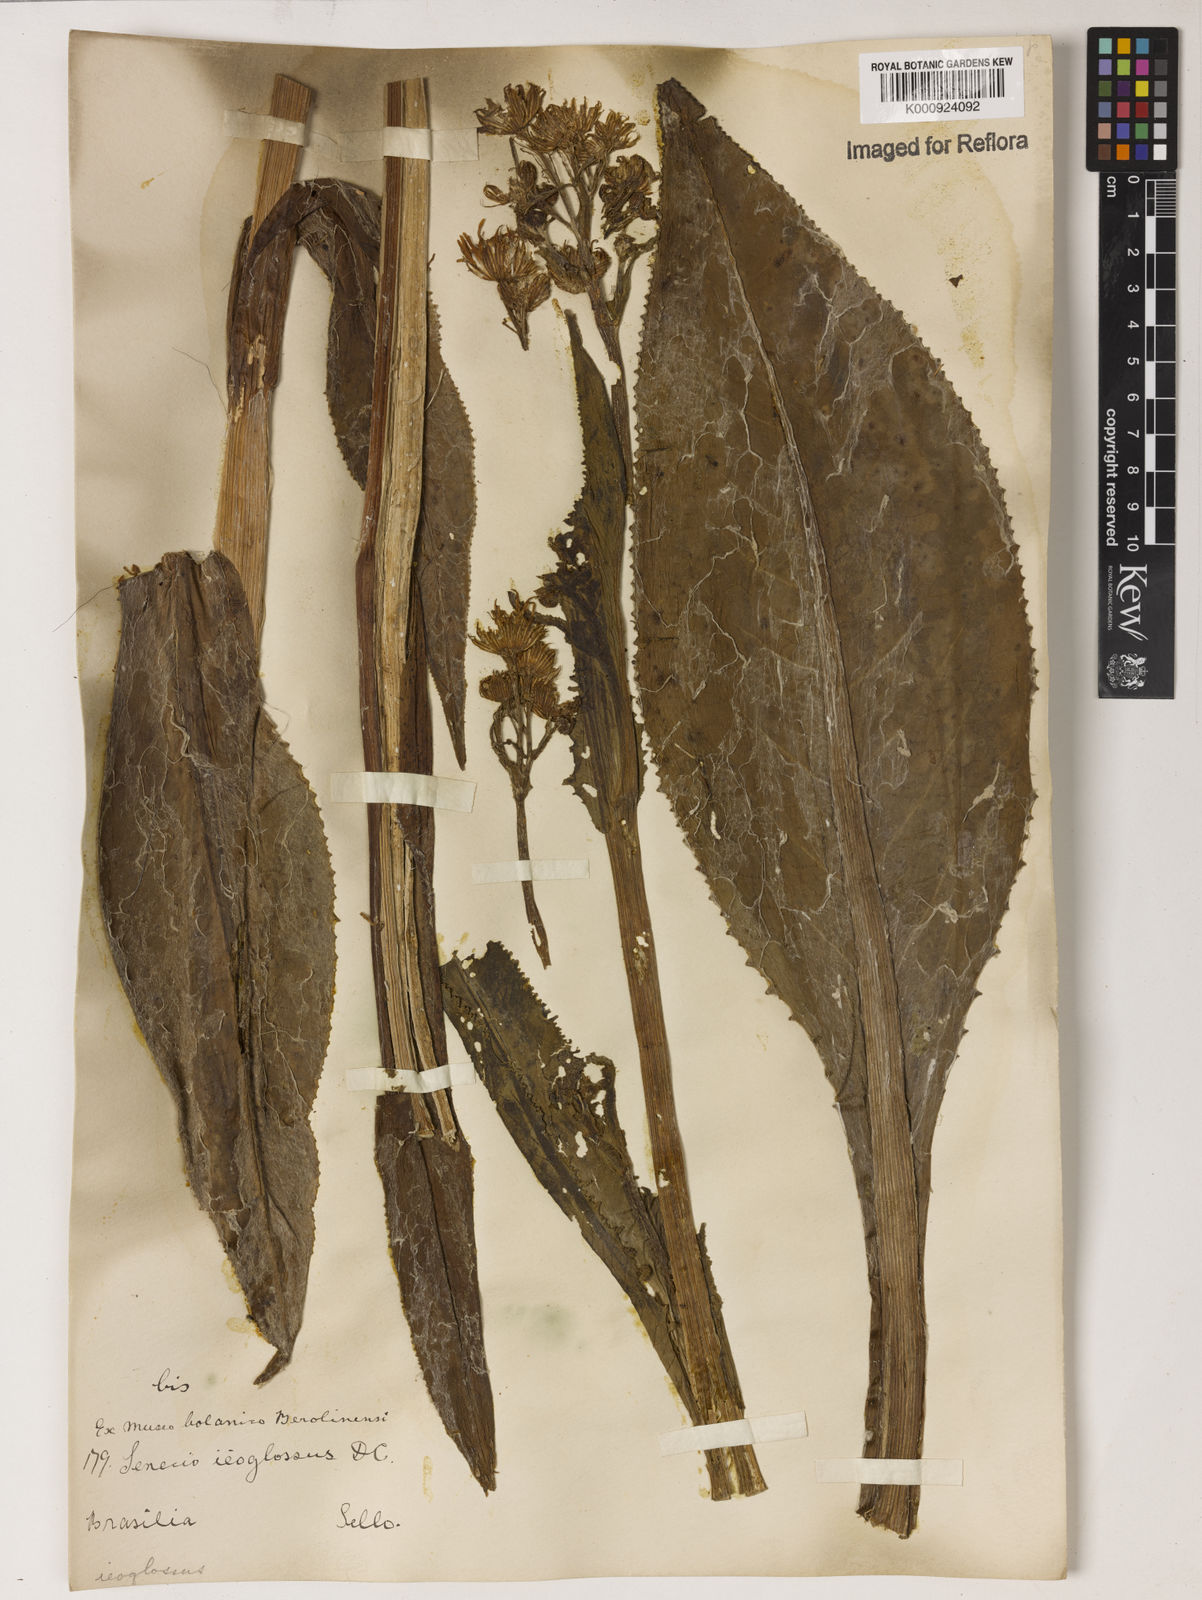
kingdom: Plantae
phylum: Tracheophyta
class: Magnoliopsida
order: Asterales
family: Asteraceae
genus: Senecio
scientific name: Senecio icoglossus
